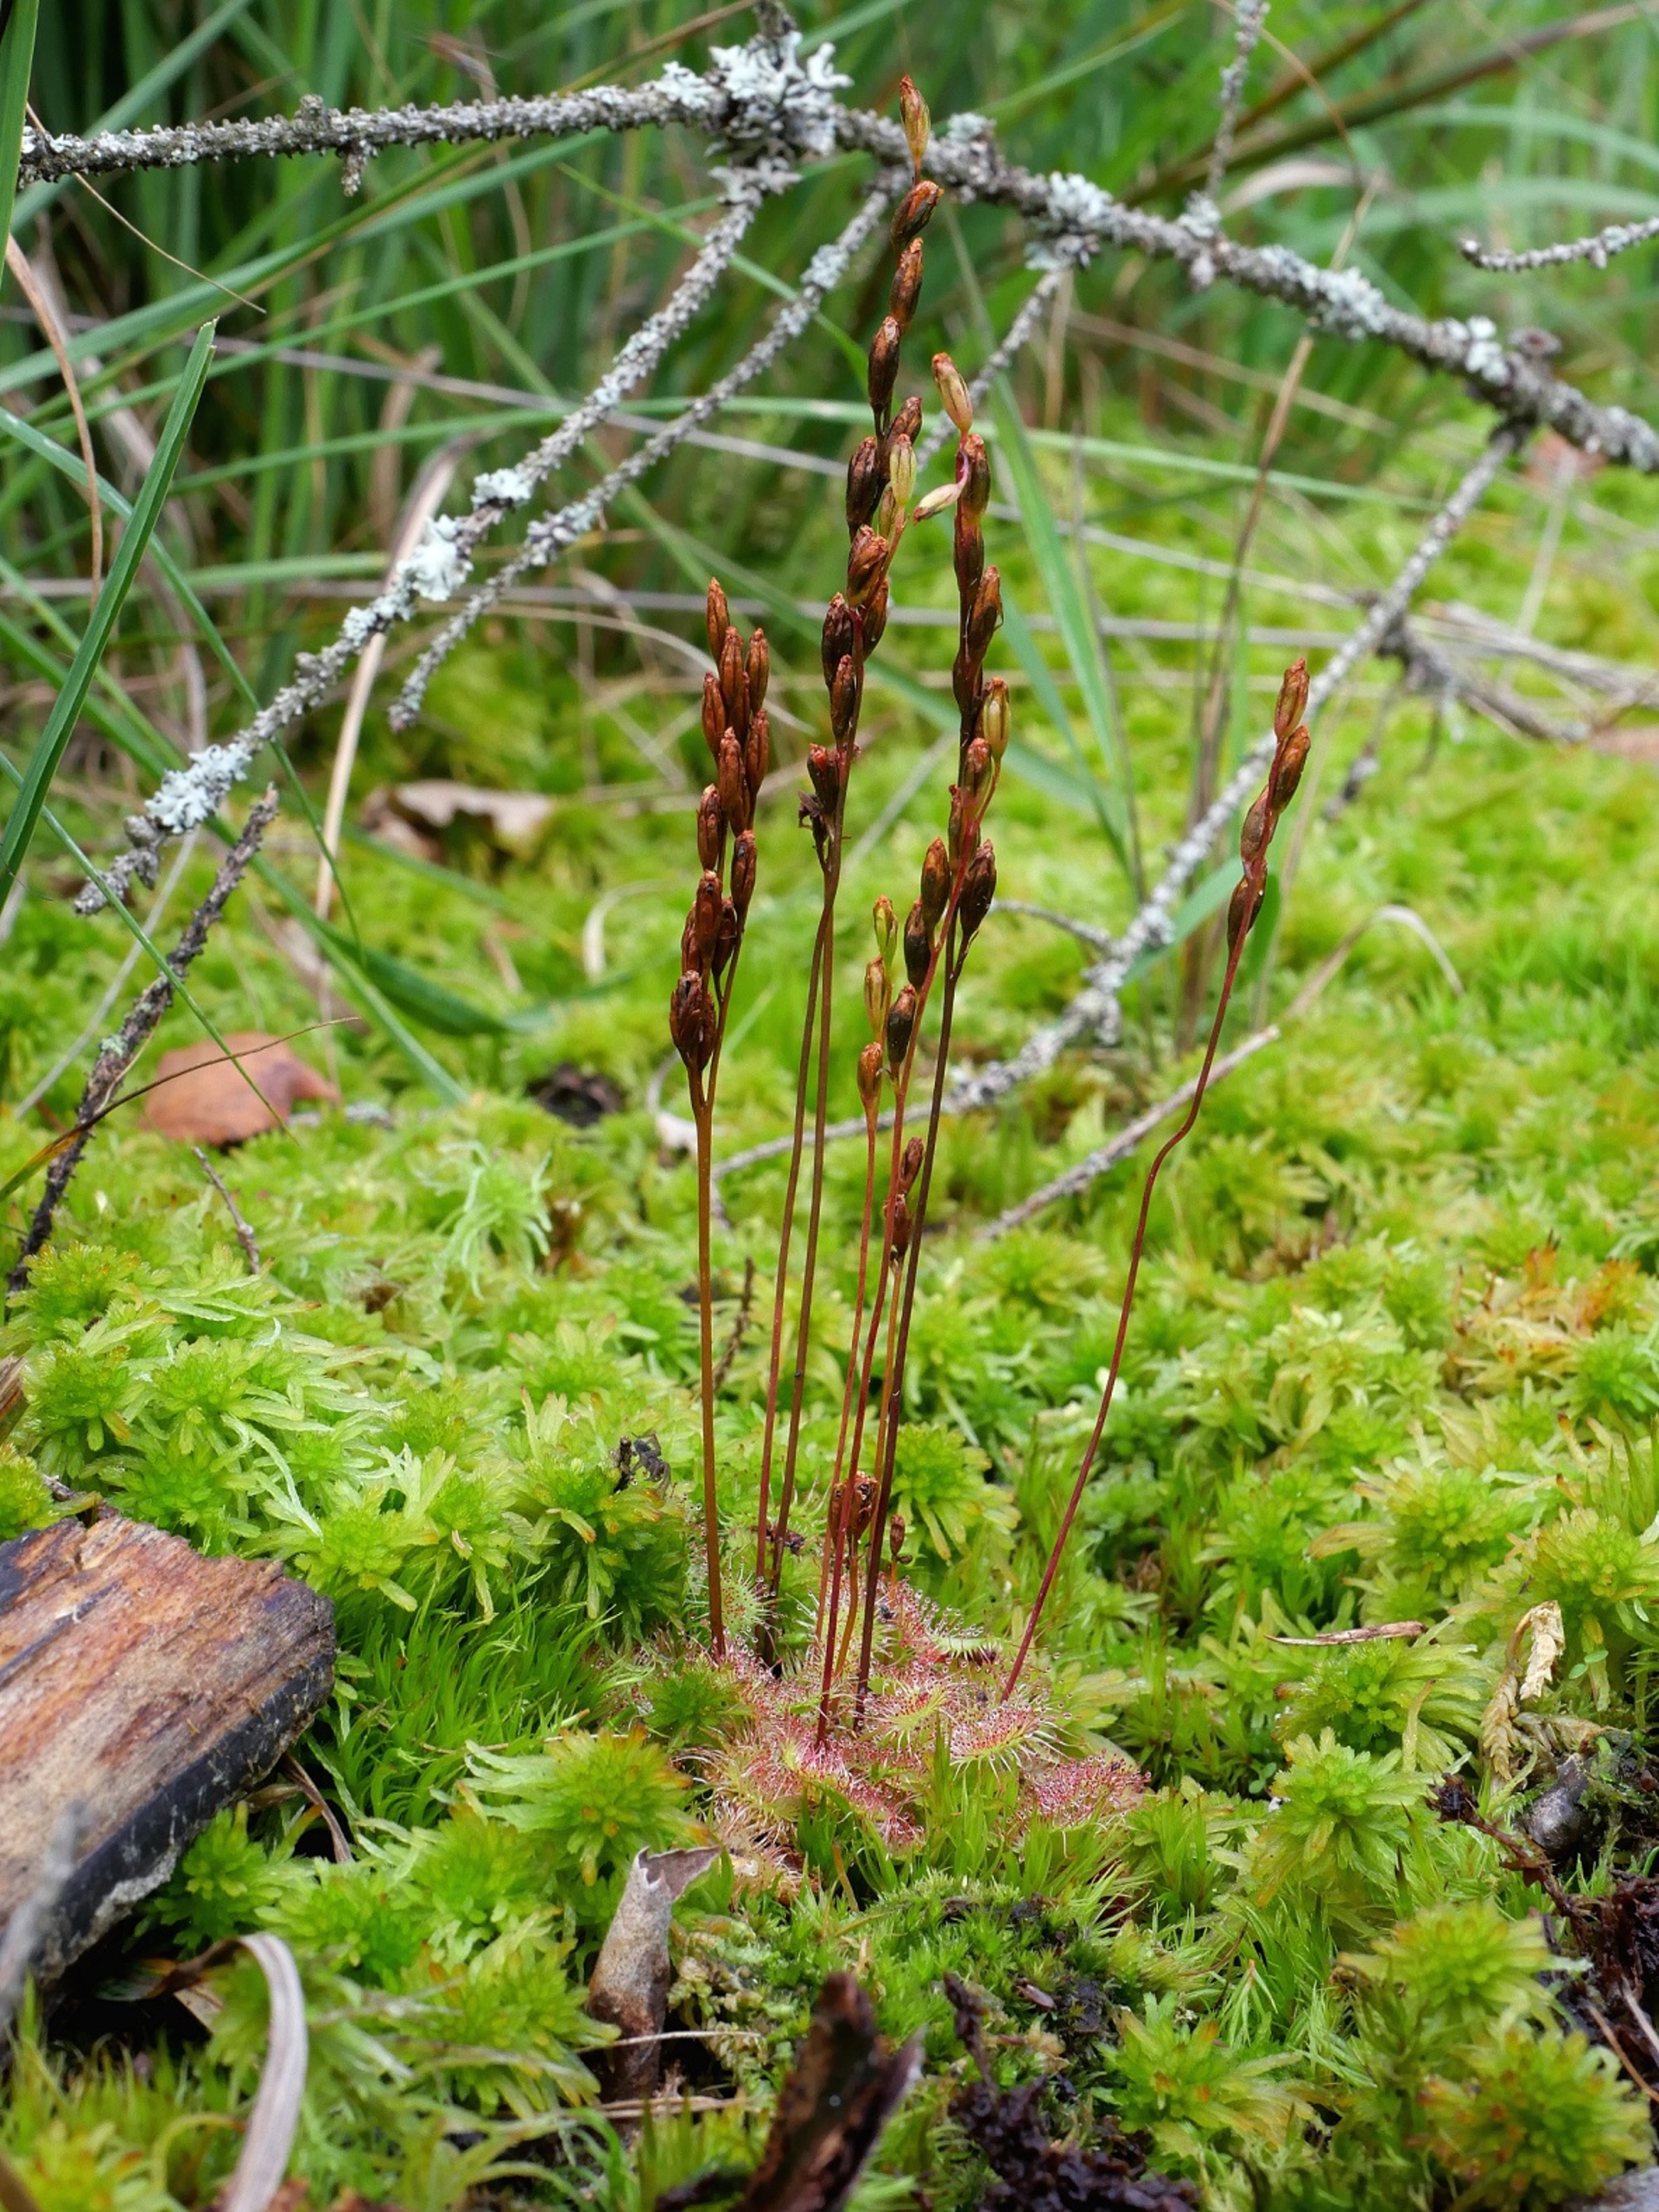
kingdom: Plantae
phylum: Tracheophyta
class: Magnoliopsida
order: Caryophyllales
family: Droseraceae
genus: Drosera
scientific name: Drosera rotundifolia
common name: Rundbladet soldug
